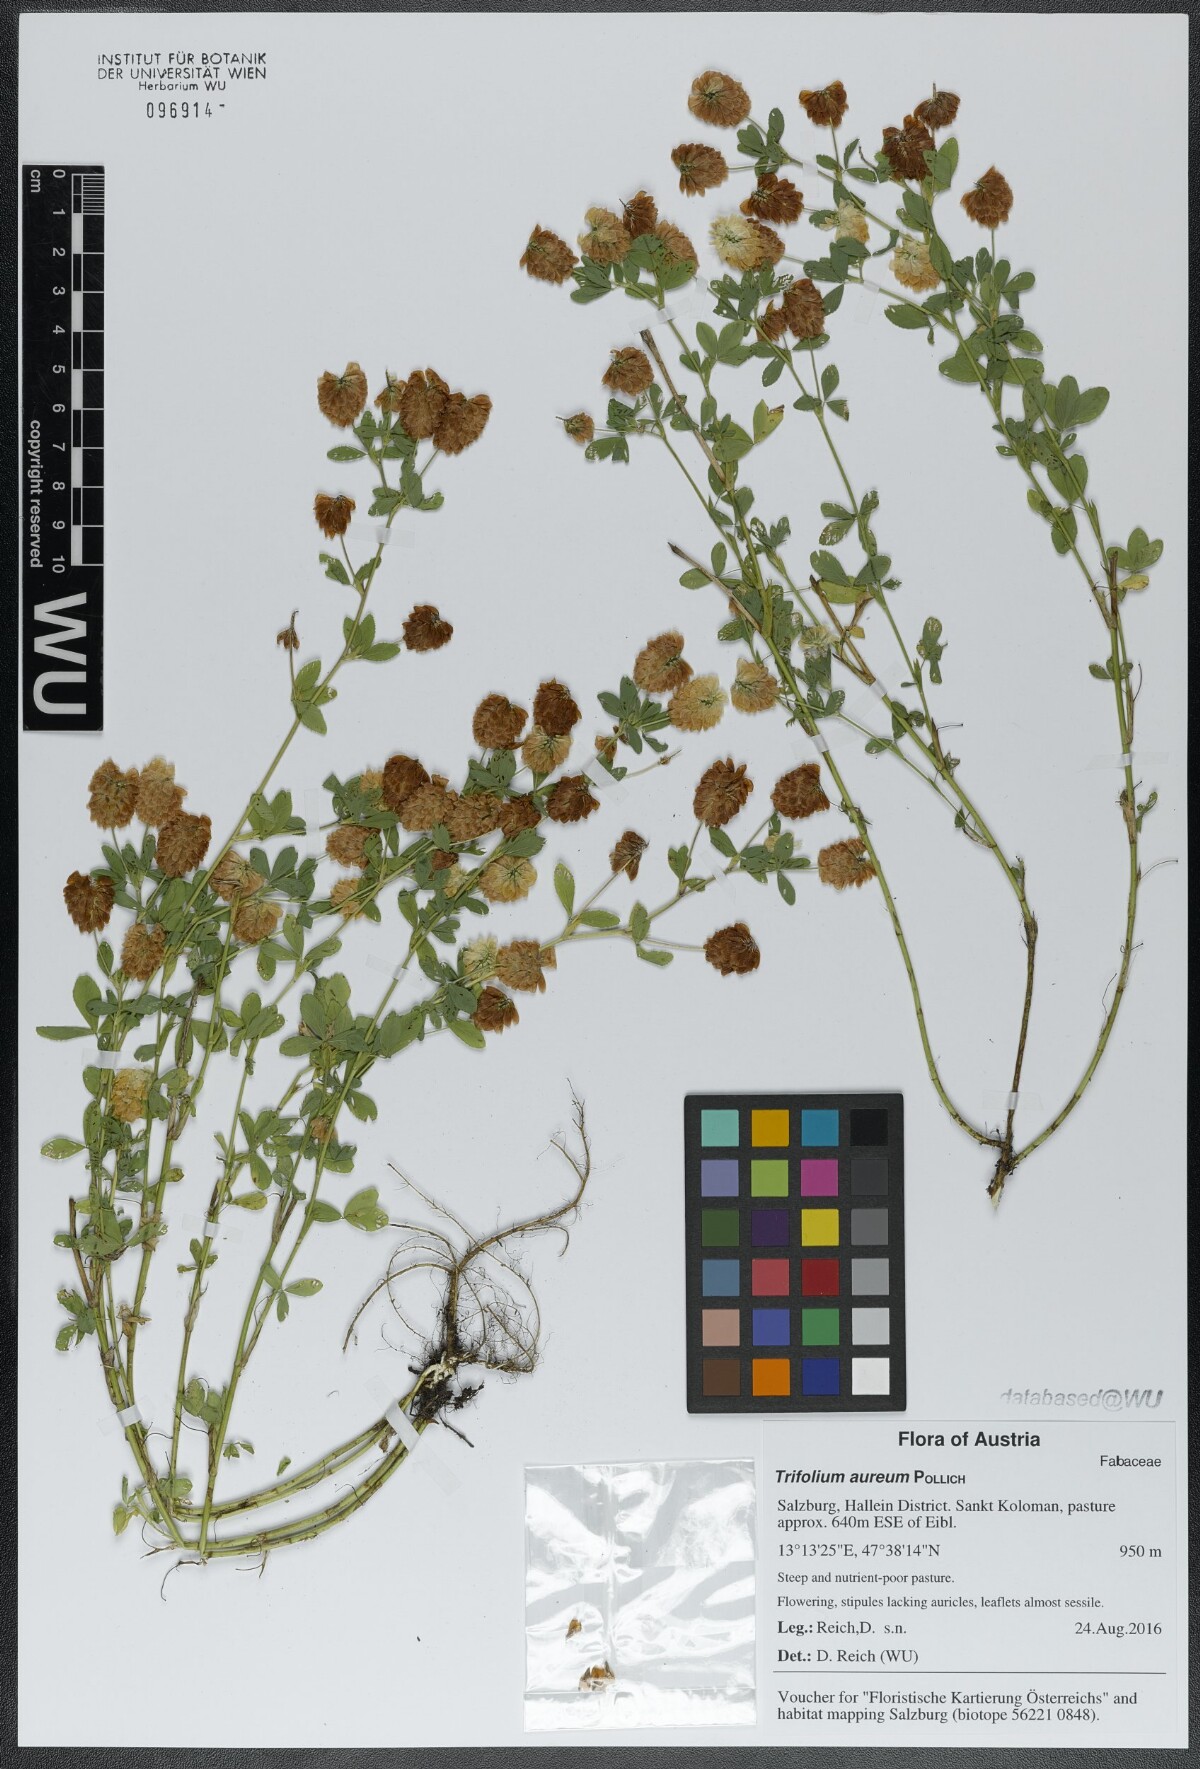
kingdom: Plantae
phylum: Tracheophyta
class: Magnoliopsida
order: Fabales
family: Fabaceae
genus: Trifolium
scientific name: Trifolium aureum
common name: Golden clover
